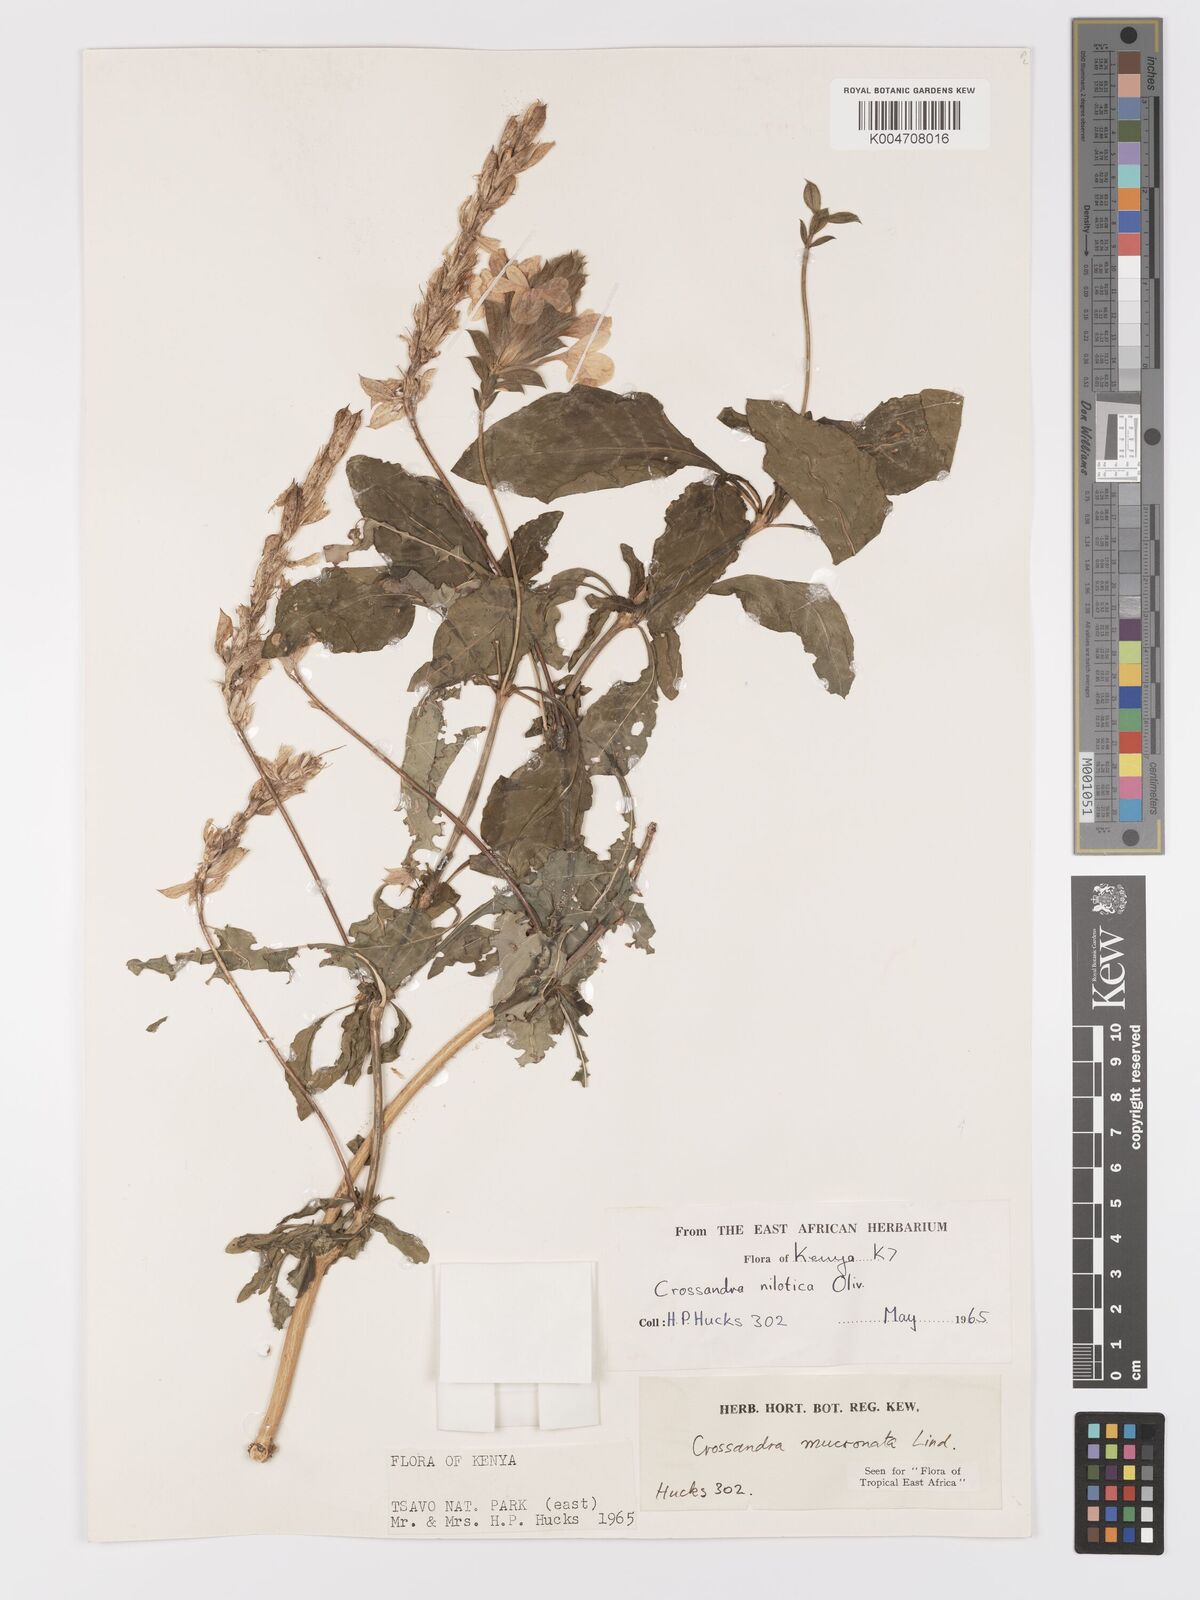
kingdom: Plantae
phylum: Tracheophyta
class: Magnoliopsida
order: Lamiales
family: Acanthaceae
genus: Crossandra
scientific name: Crossandra mucronata
